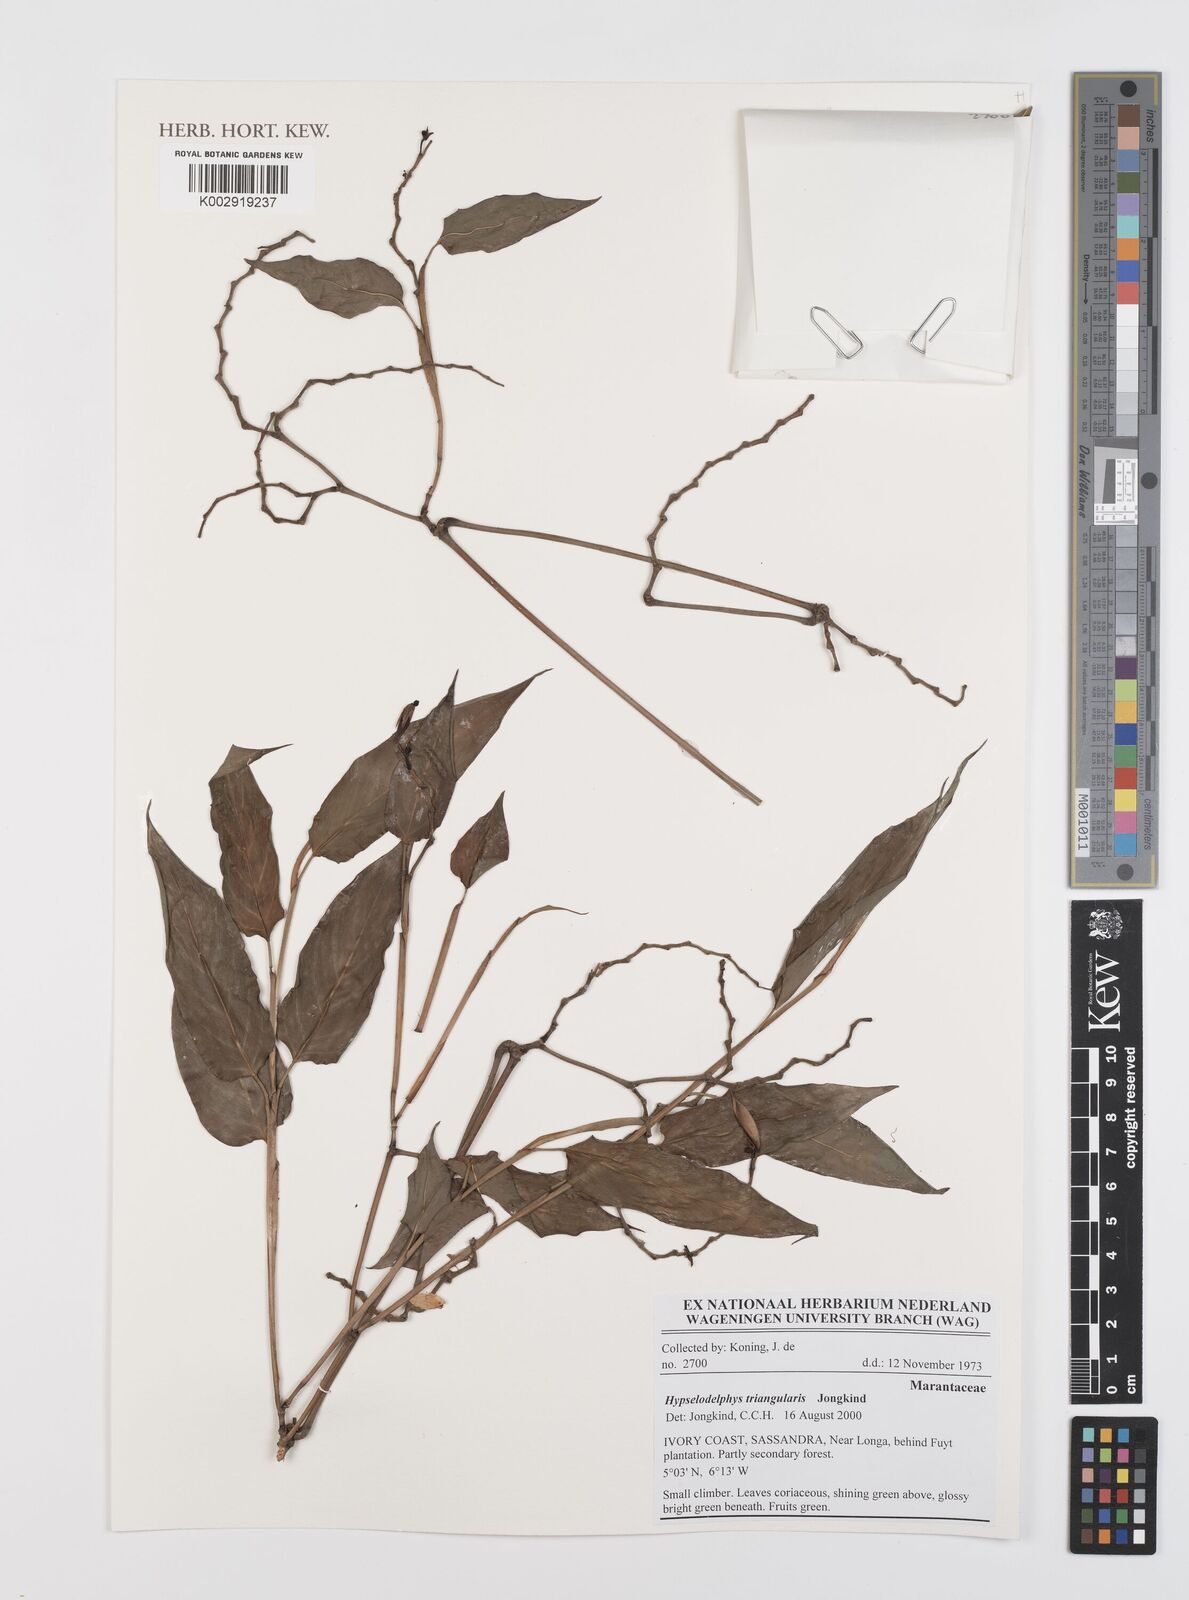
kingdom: Plantae
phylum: Tracheophyta
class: Liliopsida
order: Zingiberales
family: Marantaceae
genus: Hypselodelphys
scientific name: Hypselodelphys triangularis
